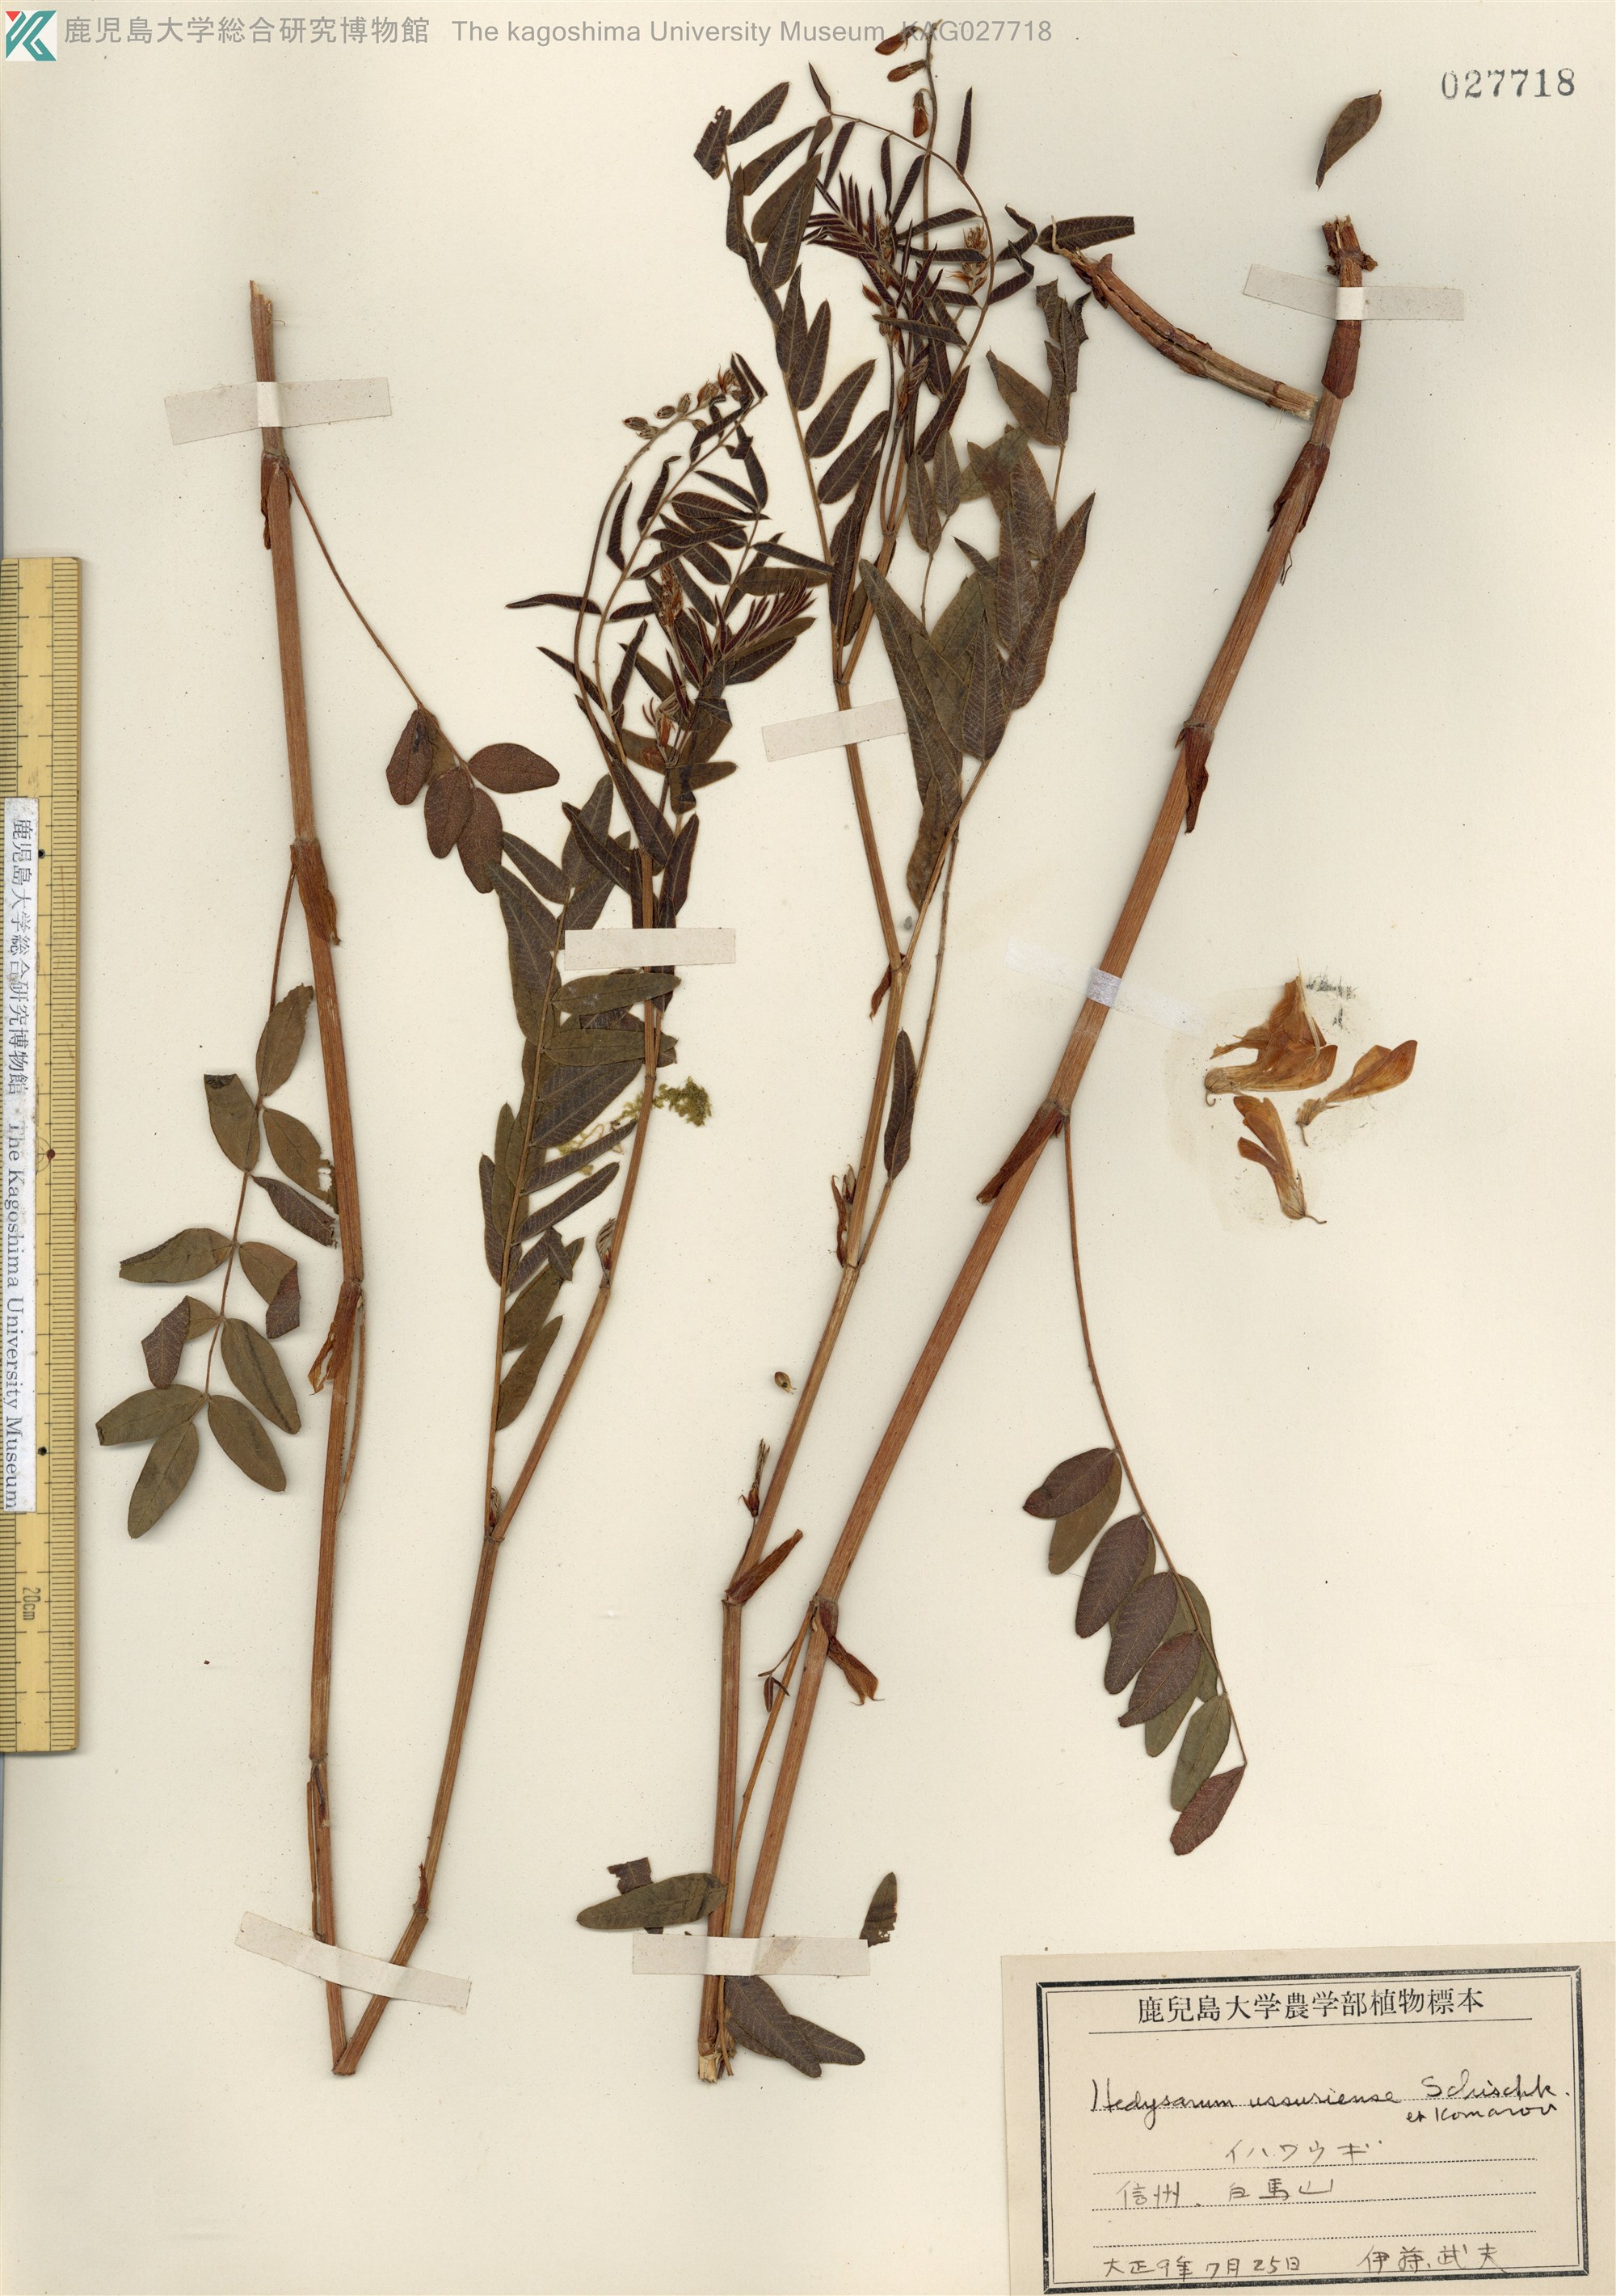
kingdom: Plantae
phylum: Tracheophyta
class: Magnoliopsida
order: Fabales
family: Fabaceae
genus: Hedysarum
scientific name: Hedysarum vicioides
